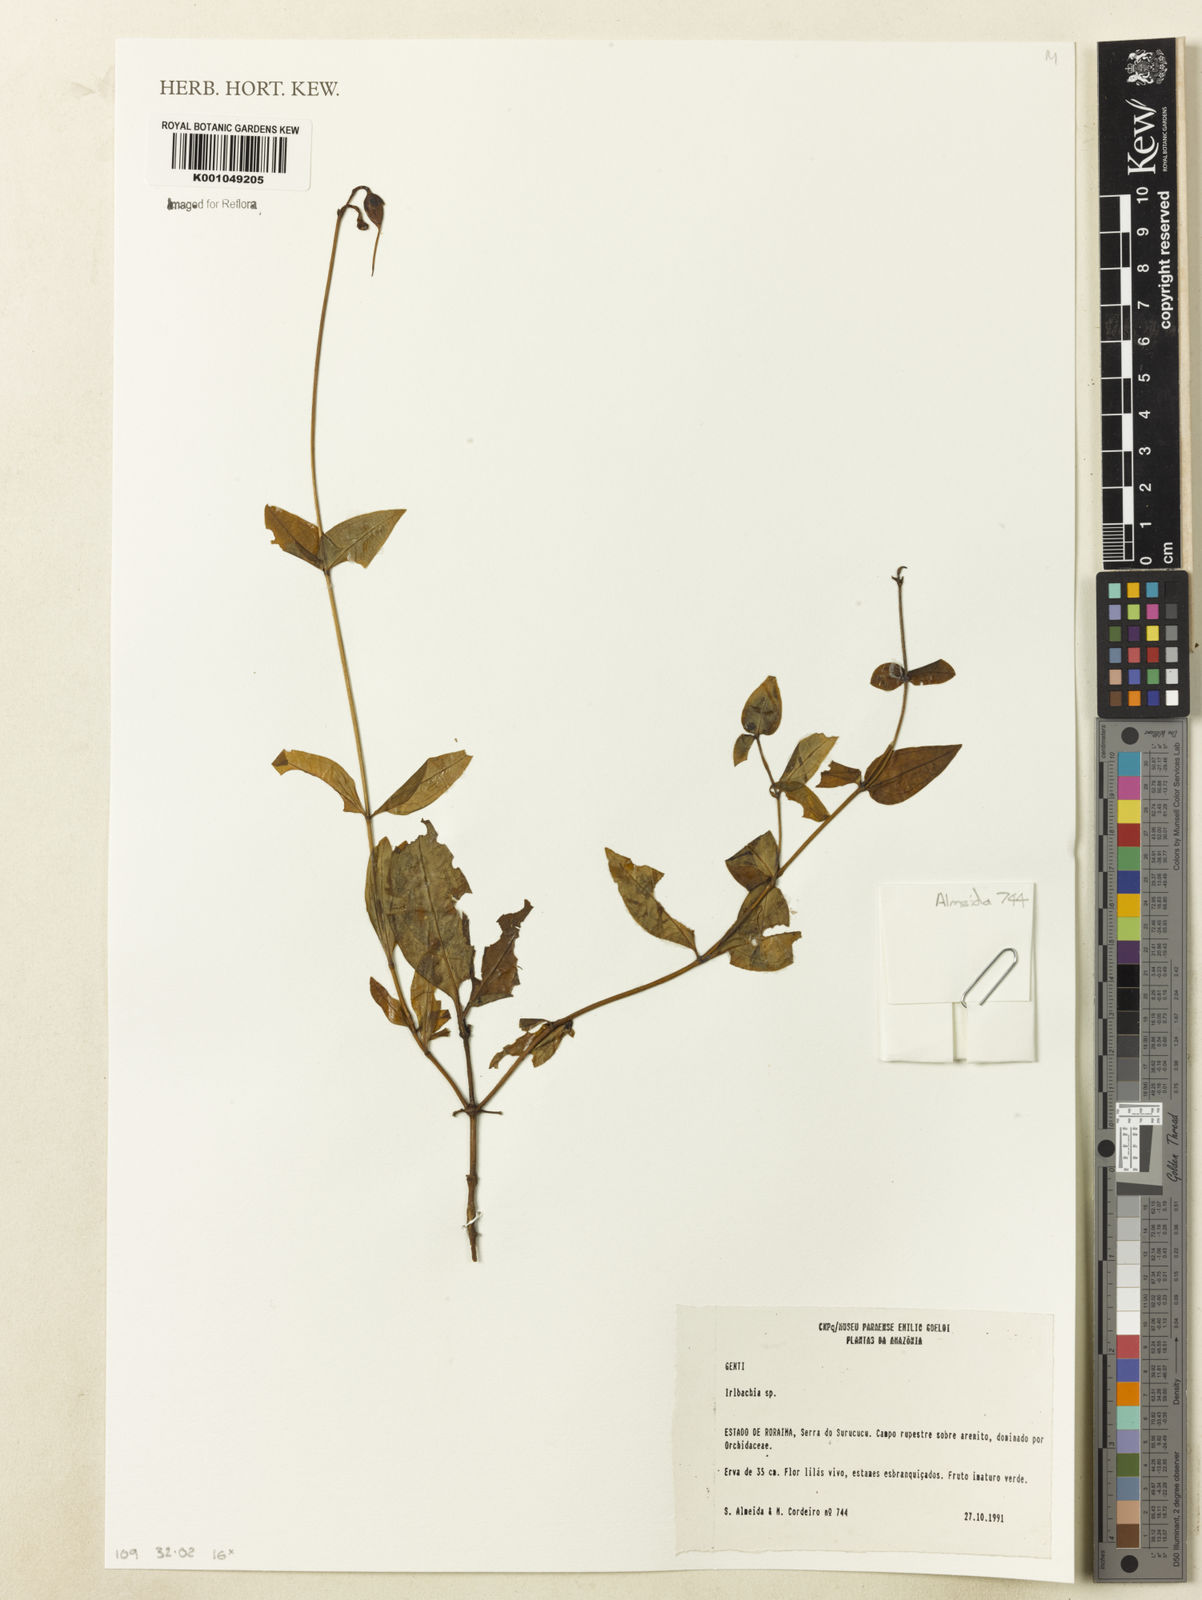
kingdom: Plantae
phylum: Tracheophyta
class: Magnoliopsida
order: Gentianales
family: Gentianaceae
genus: Irlbachia
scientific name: Irlbachia
